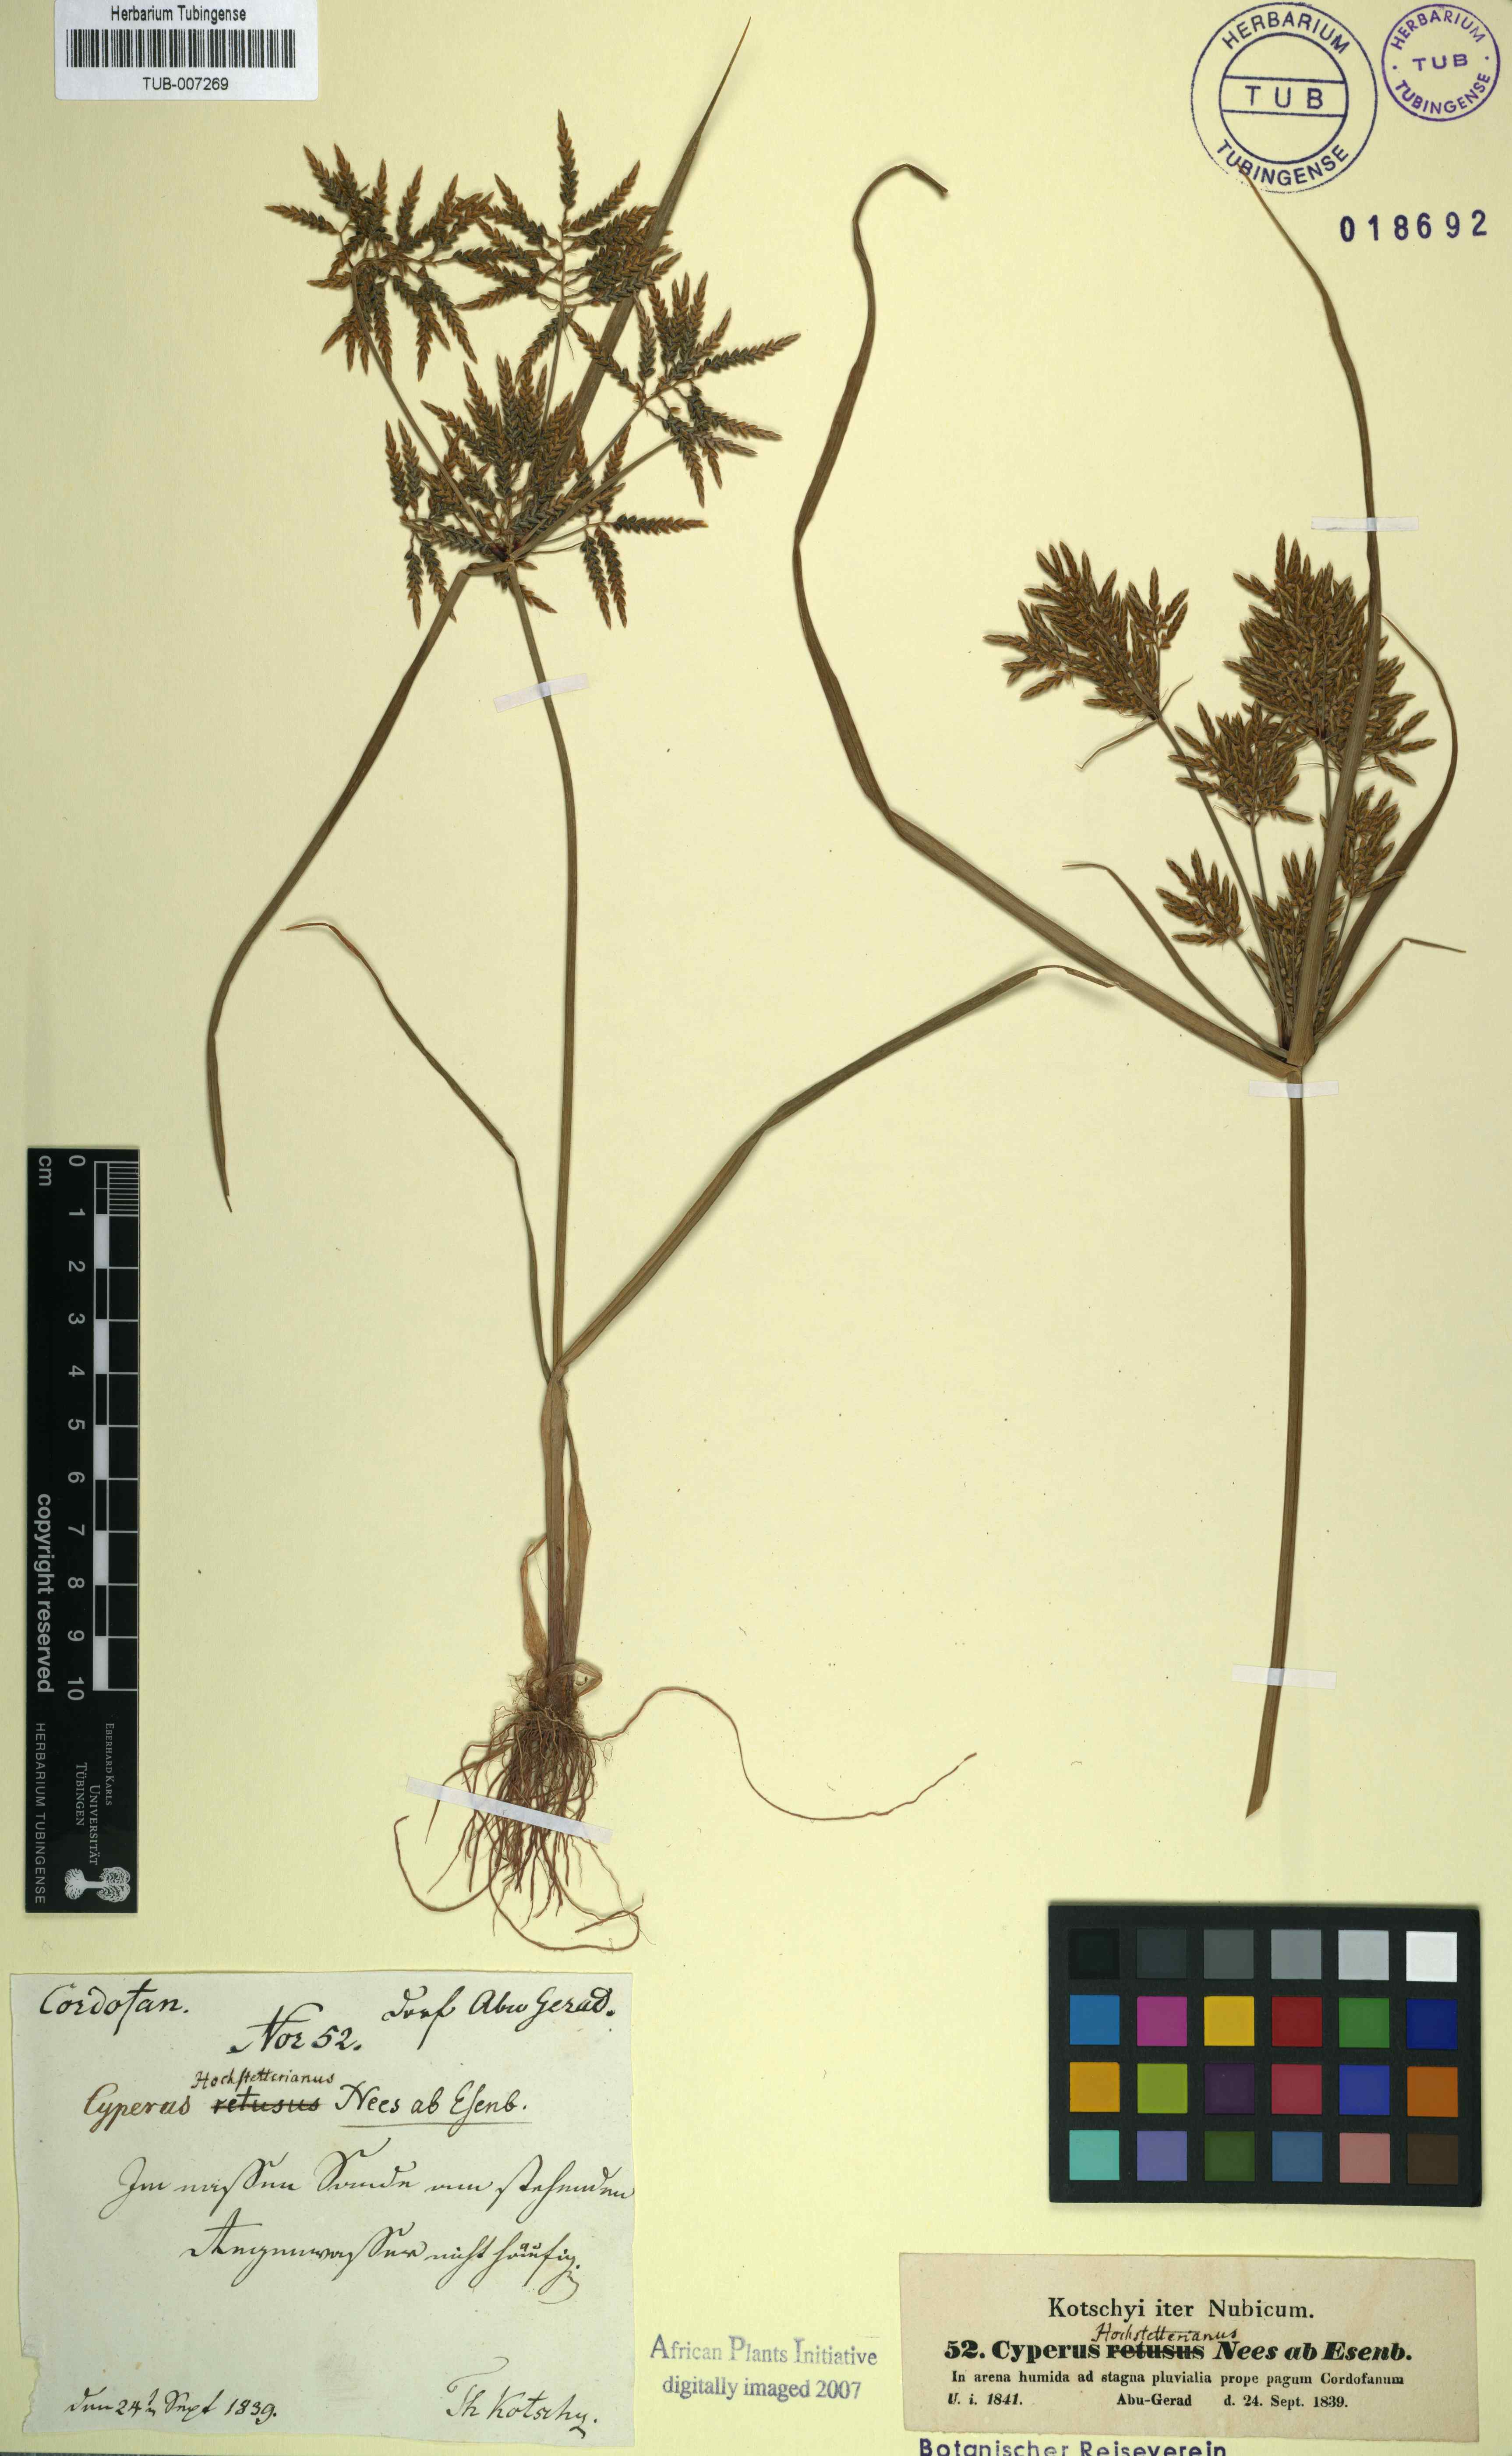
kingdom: Plantae
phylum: Tracheophyta
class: Liliopsida
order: Poales
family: Cyperaceae
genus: Cyperus
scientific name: Cyperus macrostachyos
